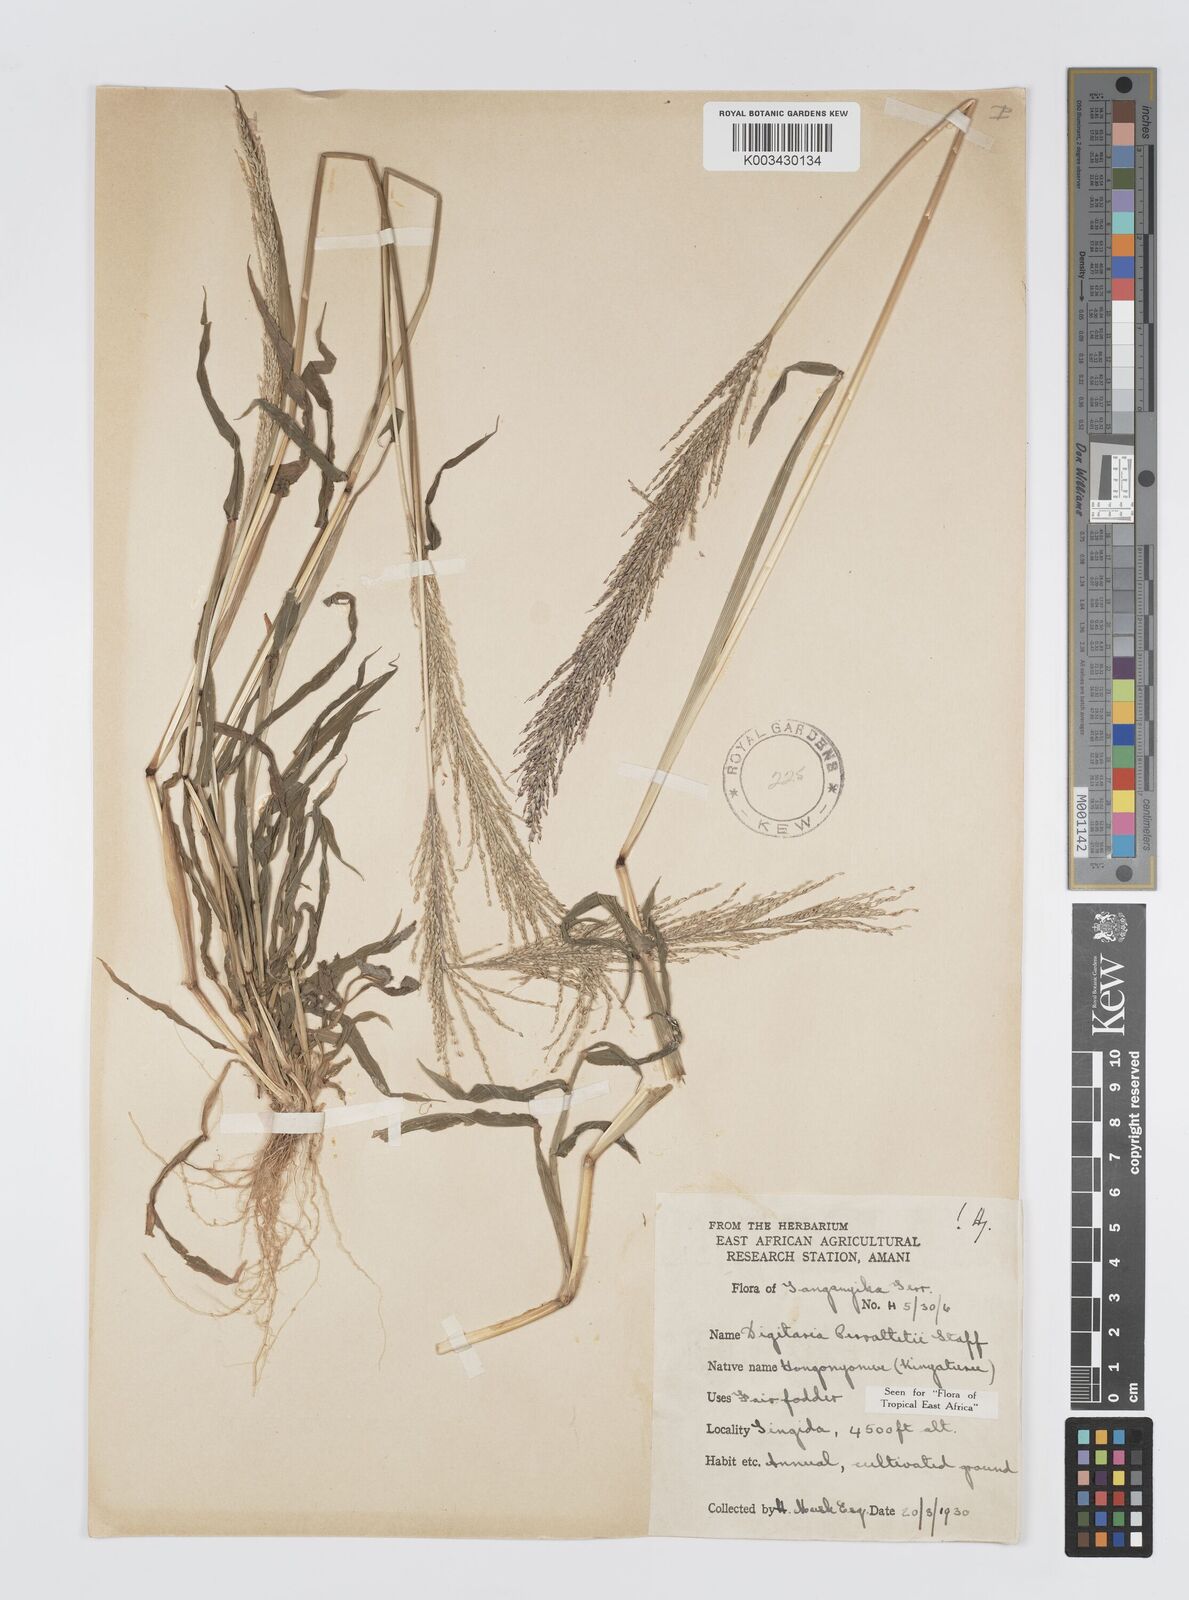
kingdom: Plantae
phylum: Tracheophyta
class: Liliopsida
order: Poales
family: Poaceae
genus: Digitaria
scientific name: Digitaria perrottetii
